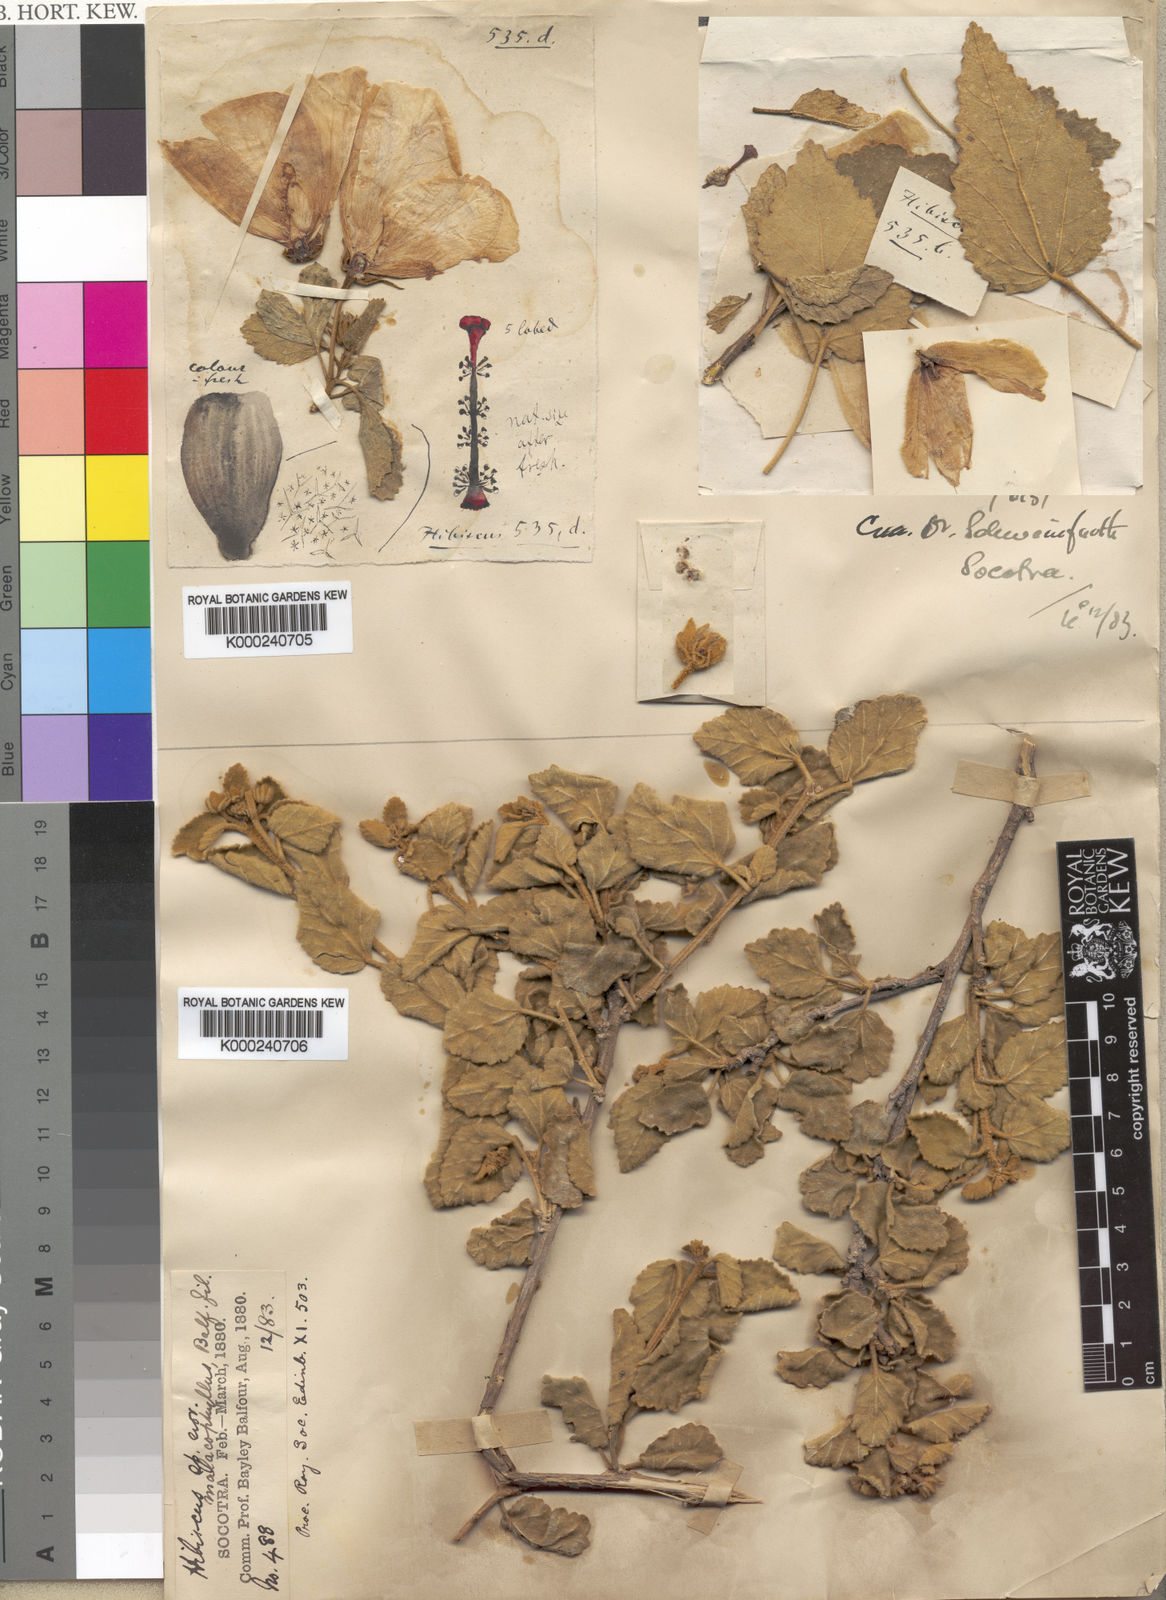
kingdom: Plantae
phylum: Tracheophyta
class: Magnoliopsida
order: Malvales
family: Malvaceae
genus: Hibiscus
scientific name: Hibiscus malacophyllus
